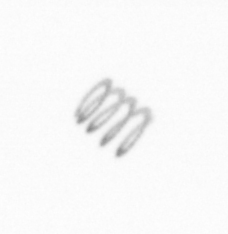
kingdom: Chromista
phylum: Ochrophyta
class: Bacillariophyceae
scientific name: Bacillariophyceae
